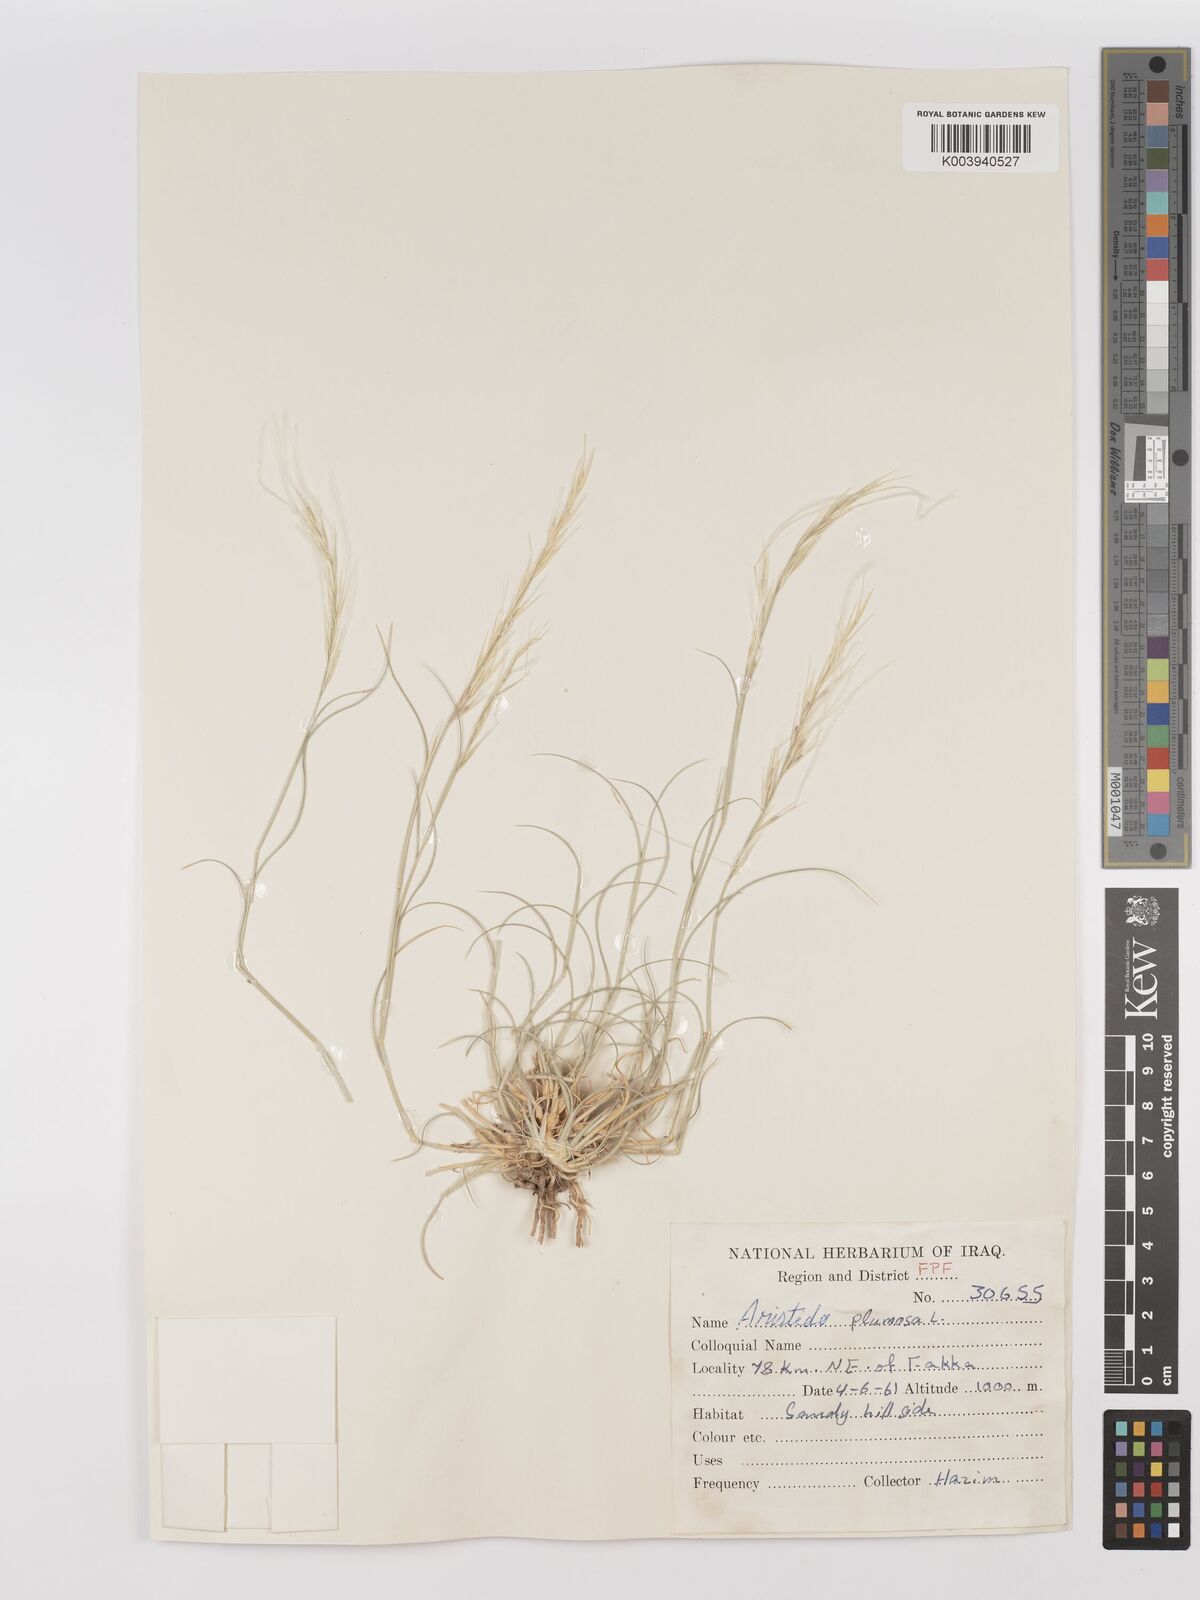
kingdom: Plantae
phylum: Tracheophyta
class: Liliopsida
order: Poales
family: Poaceae
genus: Stipagrostis
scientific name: Stipagrostis plumosa
